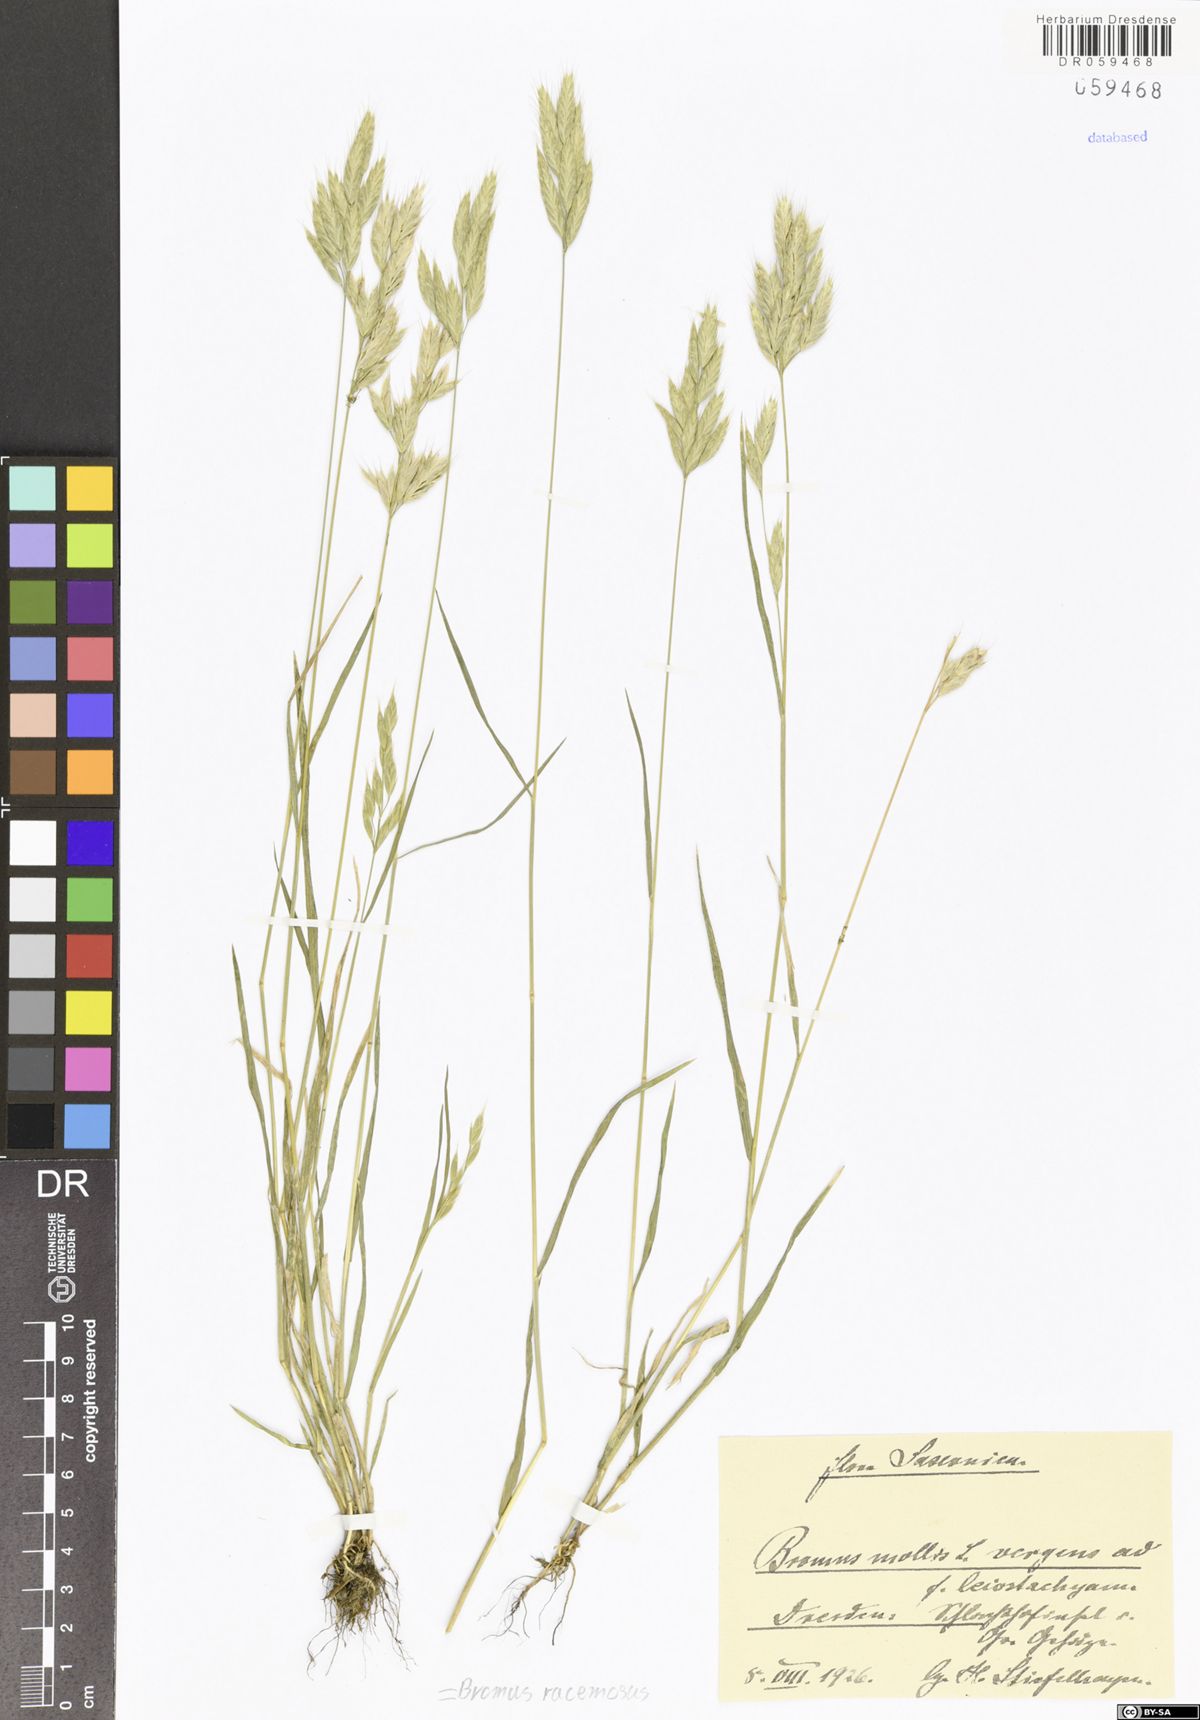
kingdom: Plantae
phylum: Tracheophyta
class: Liliopsida
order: Poales
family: Poaceae
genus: Bromus
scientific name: Bromus racemosus
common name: Bald brome
